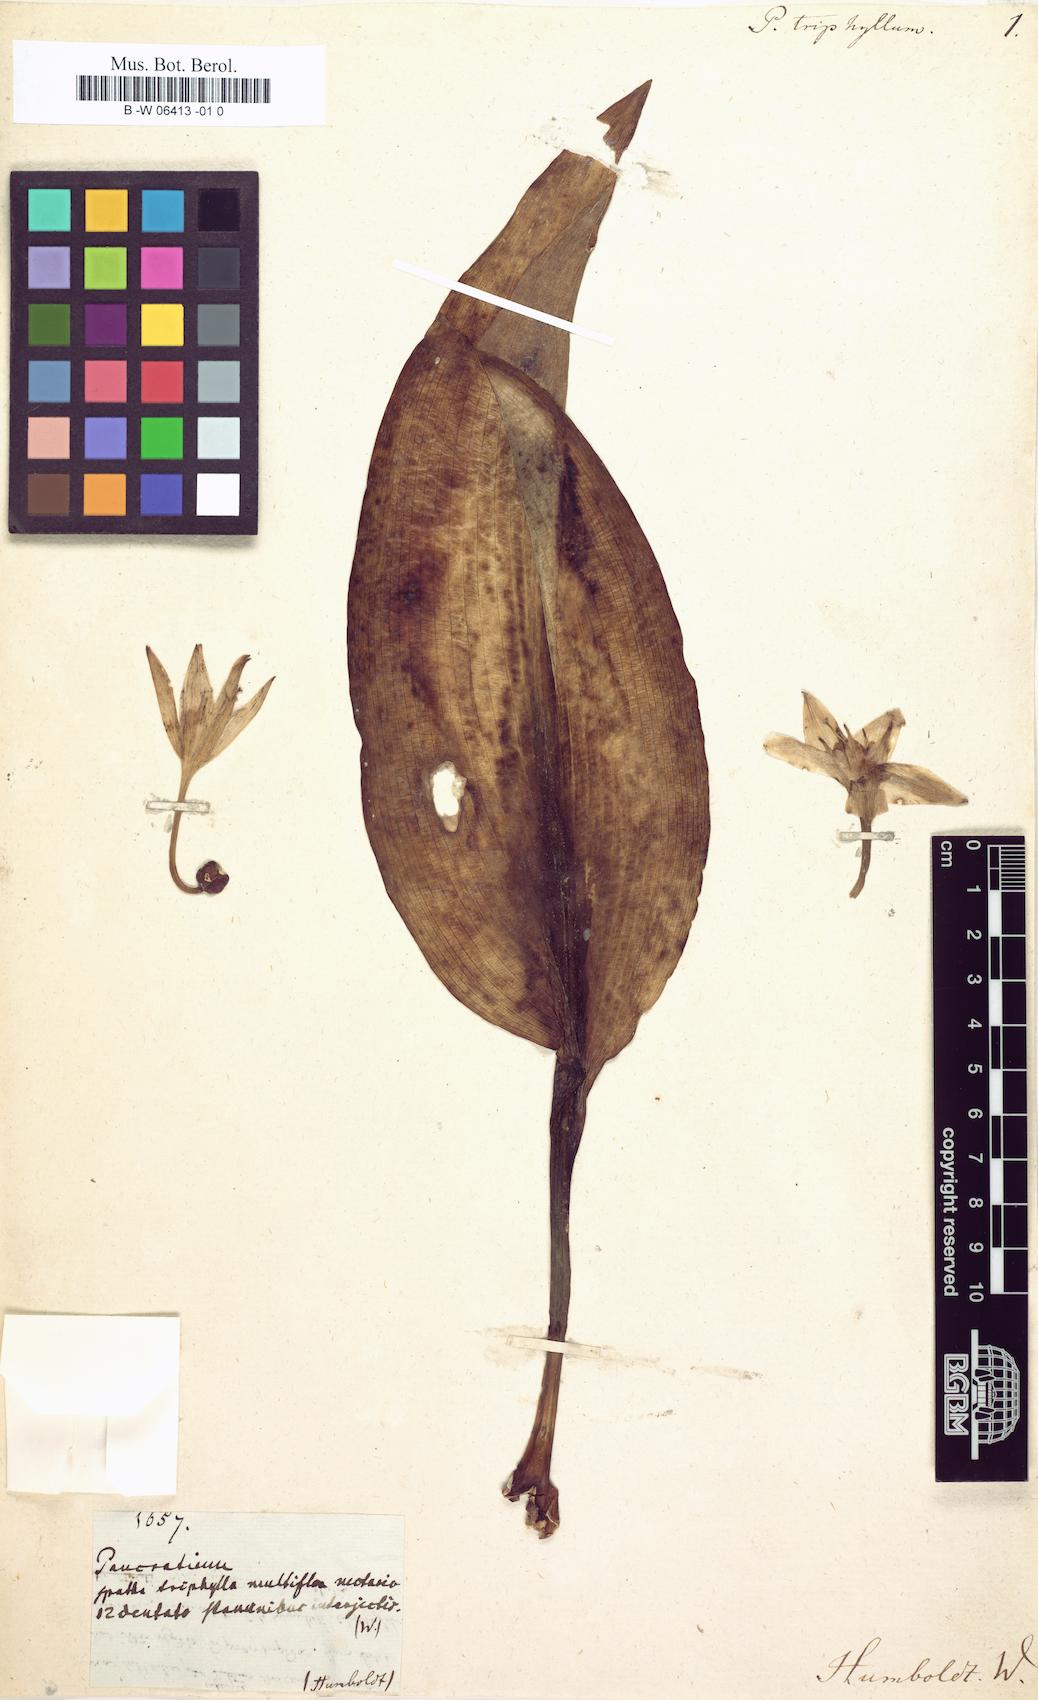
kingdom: Plantae
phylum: Tracheophyta
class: Liliopsida
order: Asparagales
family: Amaryllidaceae
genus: Hymenocallis
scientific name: Hymenocallis tubiflora
